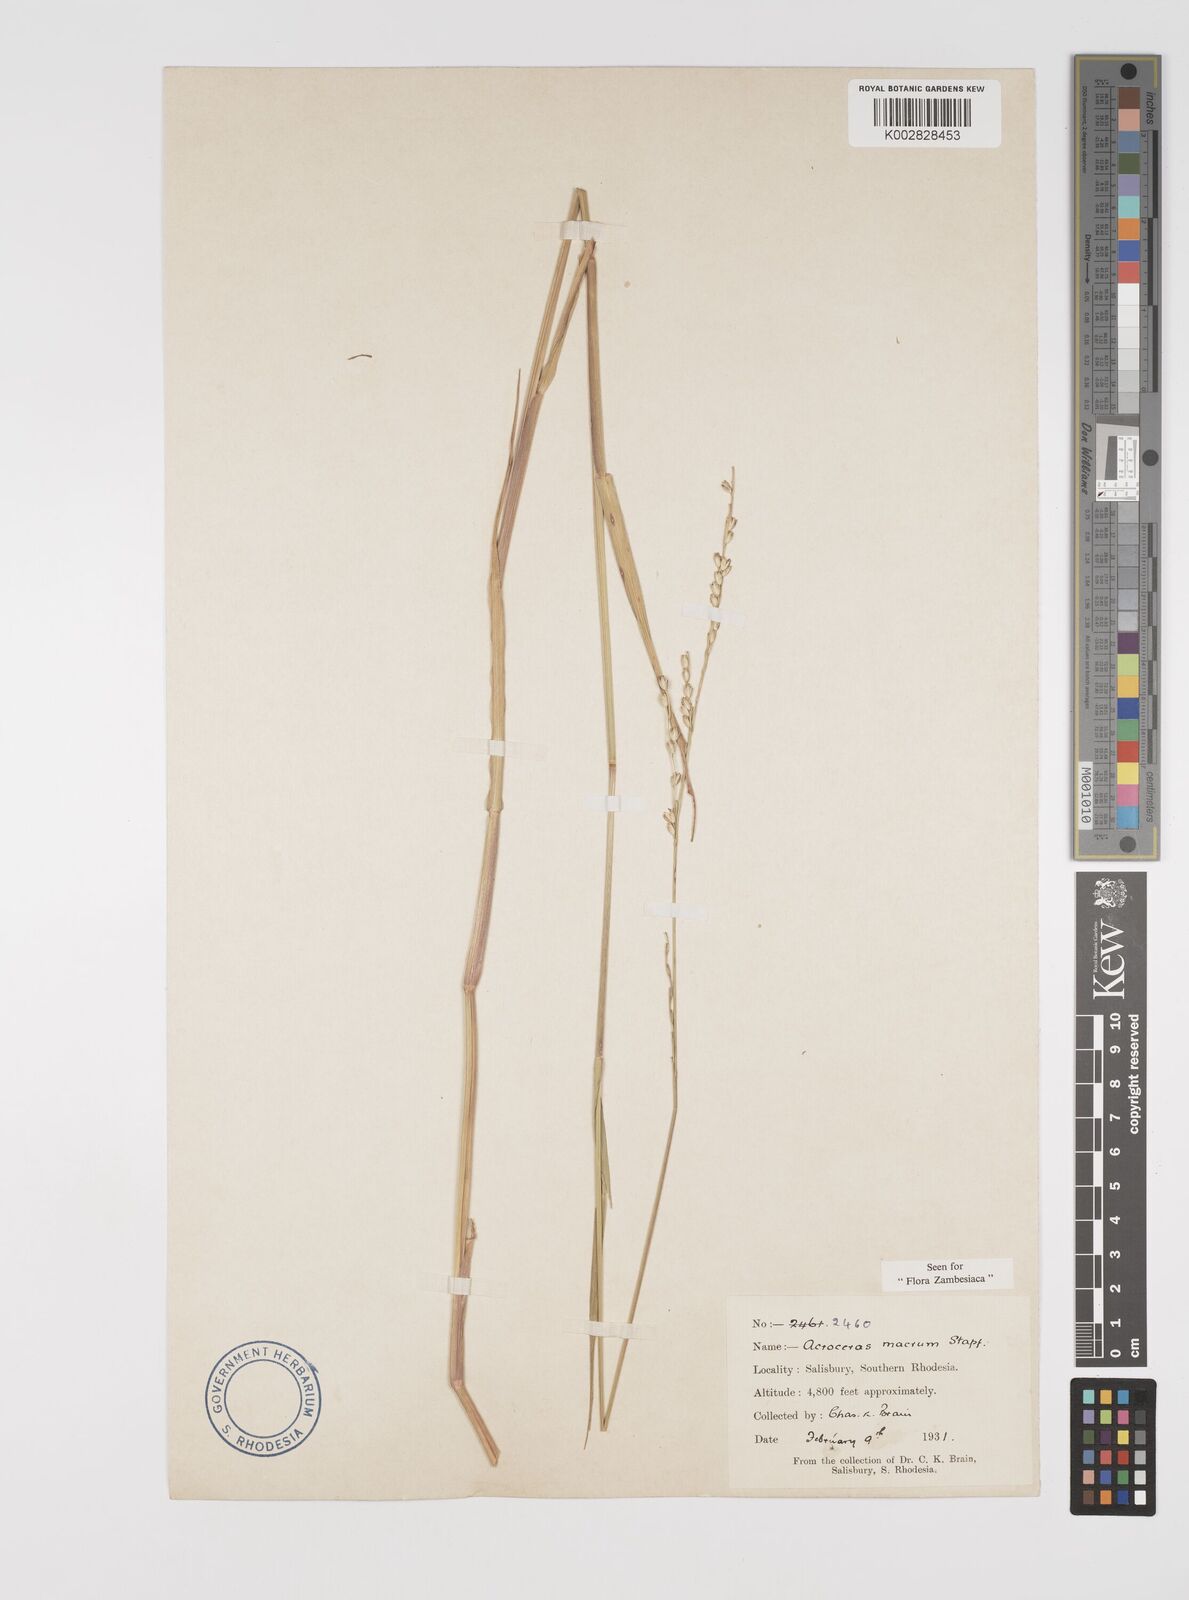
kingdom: Plantae
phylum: Tracheophyta
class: Liliopsida
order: Poales
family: Poaceae
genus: Acroceras
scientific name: Acroceras macrum
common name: Nyl grass
